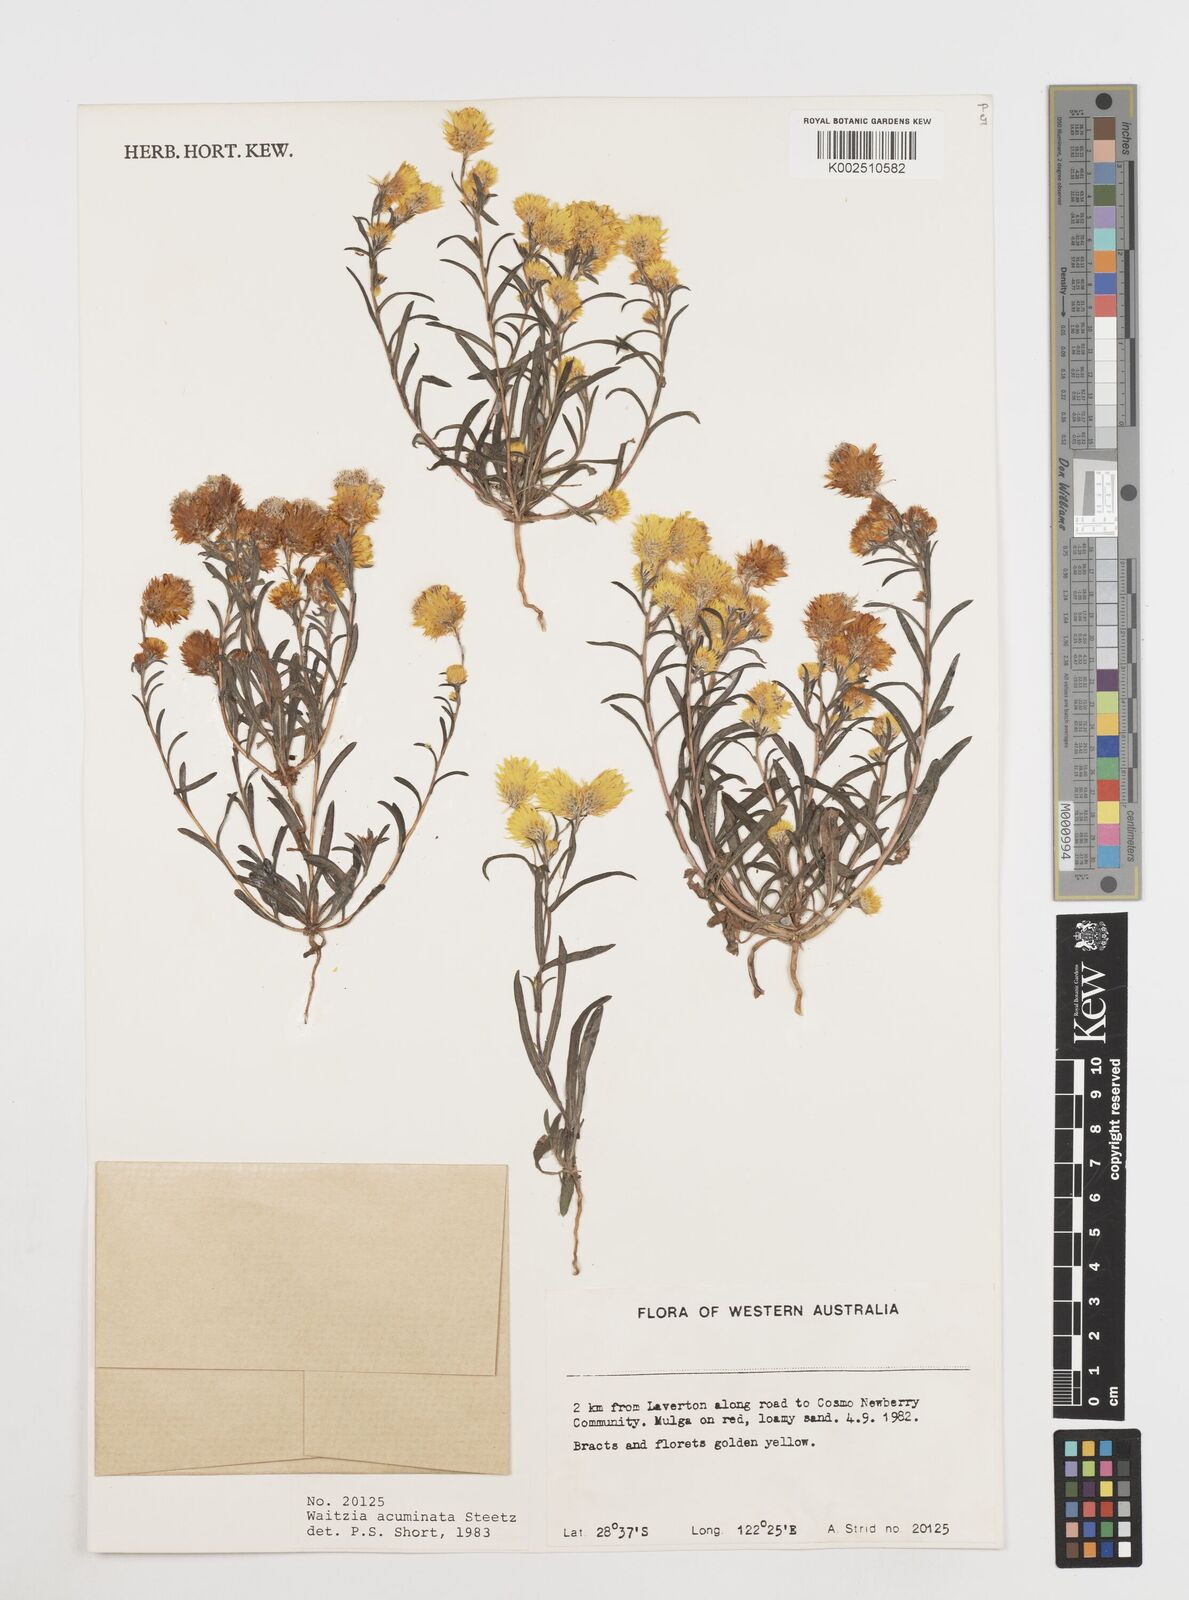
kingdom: Plantae
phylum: Tracheophyta
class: Magnoliopsida
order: Asterales
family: Asteraceae
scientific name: Asteraceae
